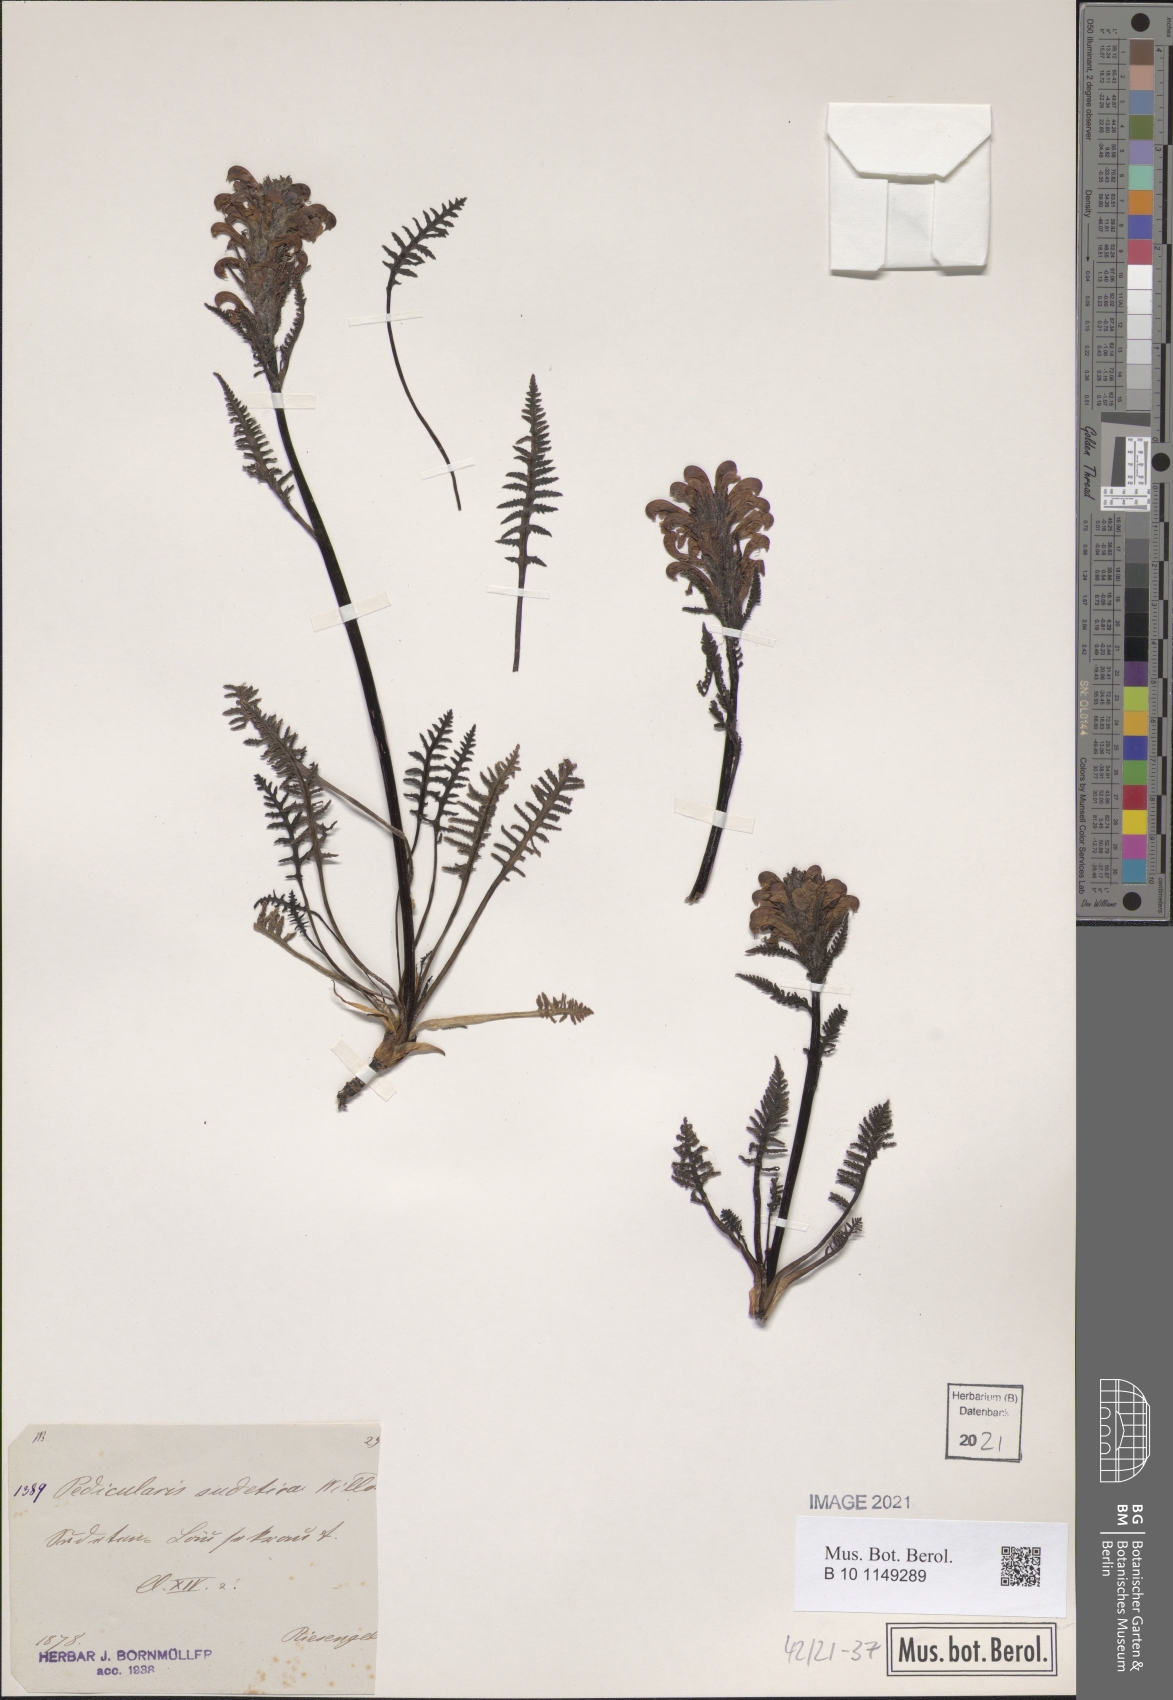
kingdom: Plantae
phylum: Tracheophyta
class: Magnoliopsida
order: Lamiales
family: Orobanchaceae
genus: Pedicularis
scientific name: Pedicularis sudetica
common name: Sudeten lousewort
